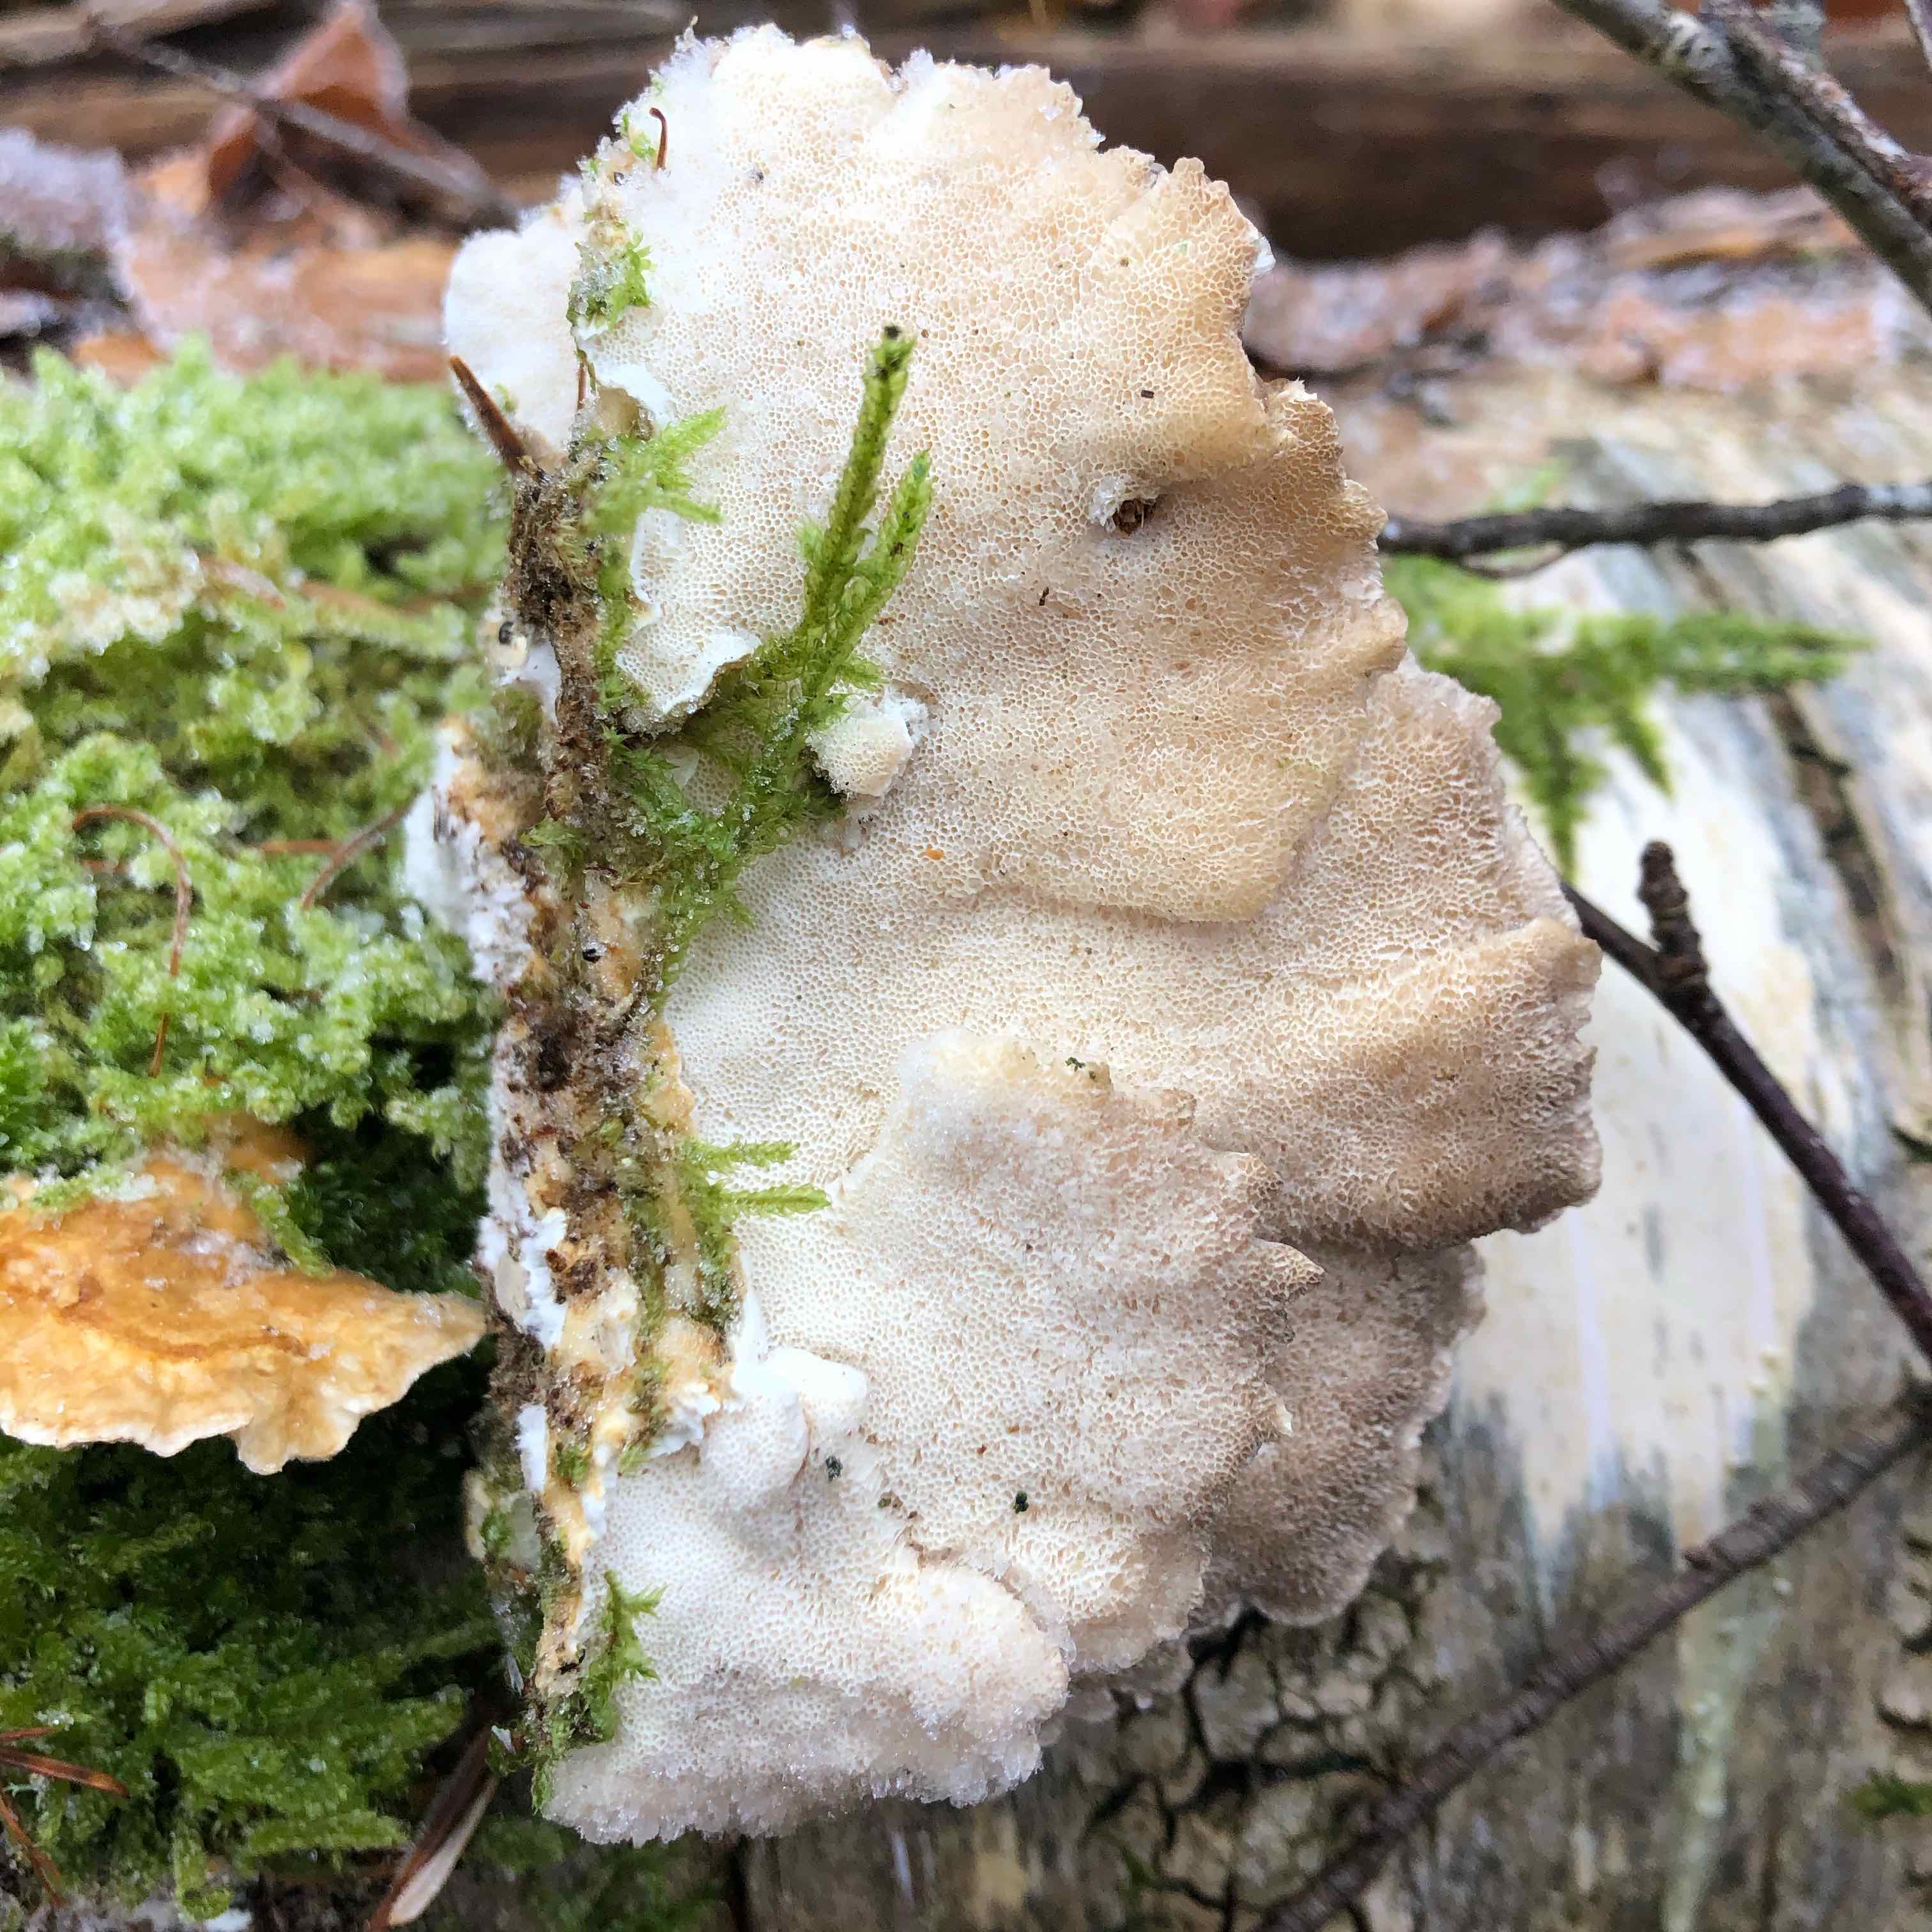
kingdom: Fungi
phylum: Basidiomycota
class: Agaricomycetes
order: Polyporales
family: Polyporaceae
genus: Trametes
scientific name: Trametes ochracea
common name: bæltet læderporesvamp
